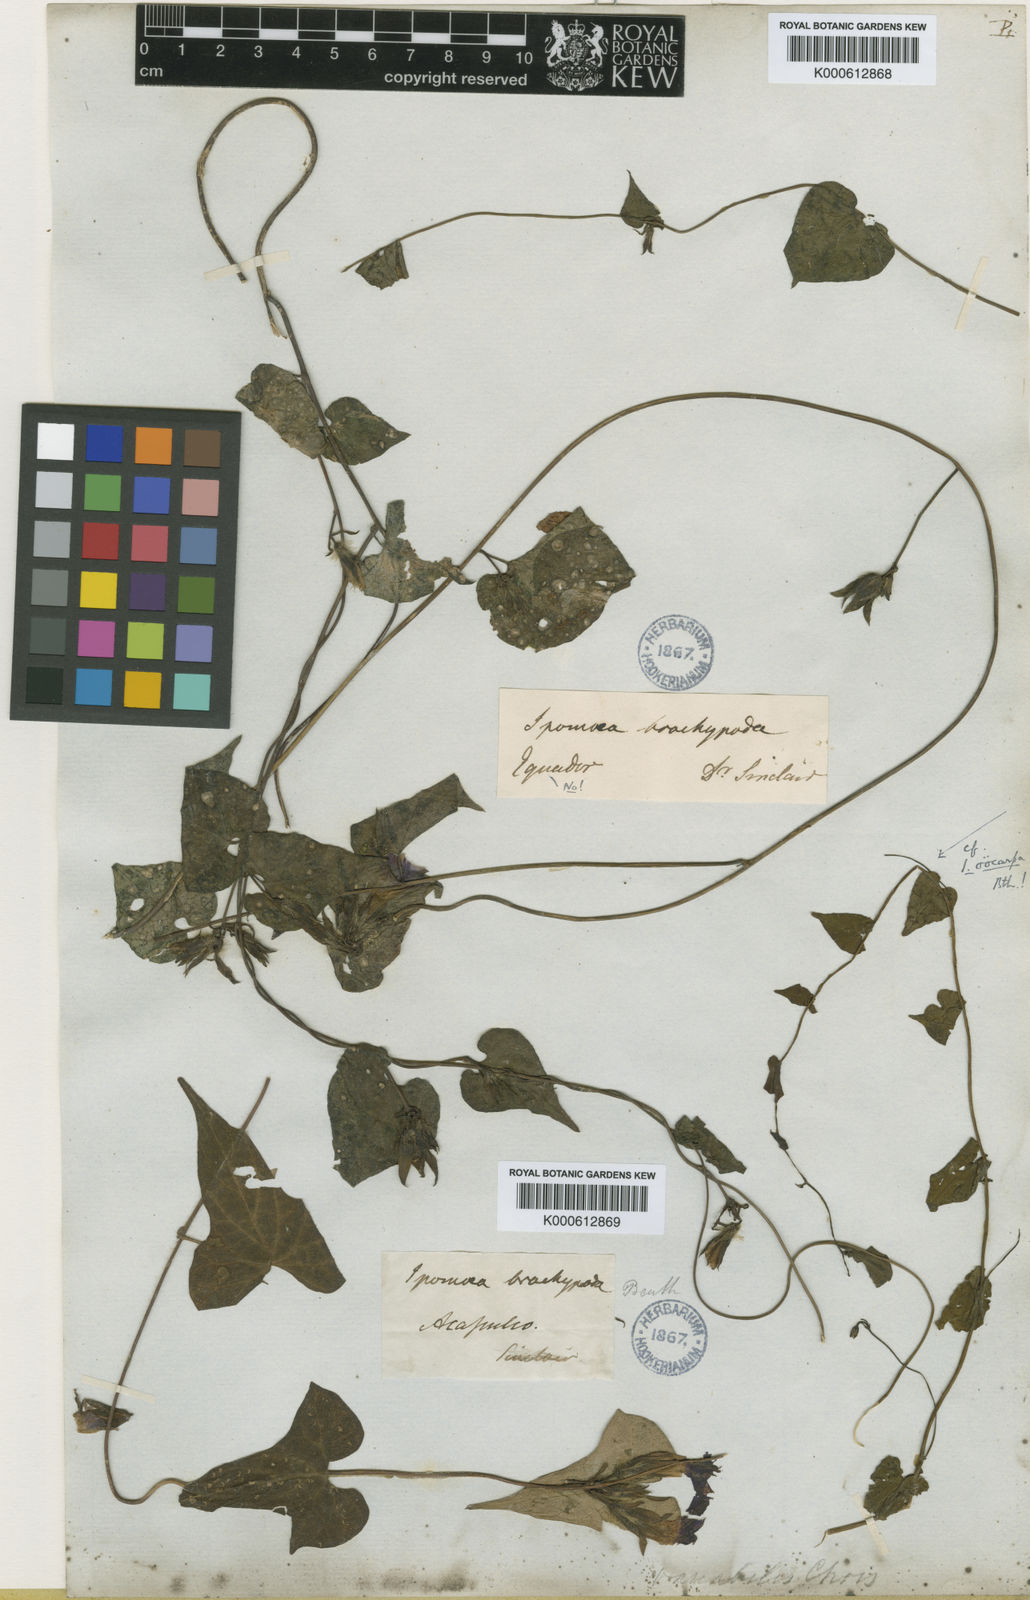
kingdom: Plantae
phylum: Tracheophyta
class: Magnoliopsida
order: Solanales
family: Convolvulaceae
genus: Ipomoea
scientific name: Ipomoea meyeri
